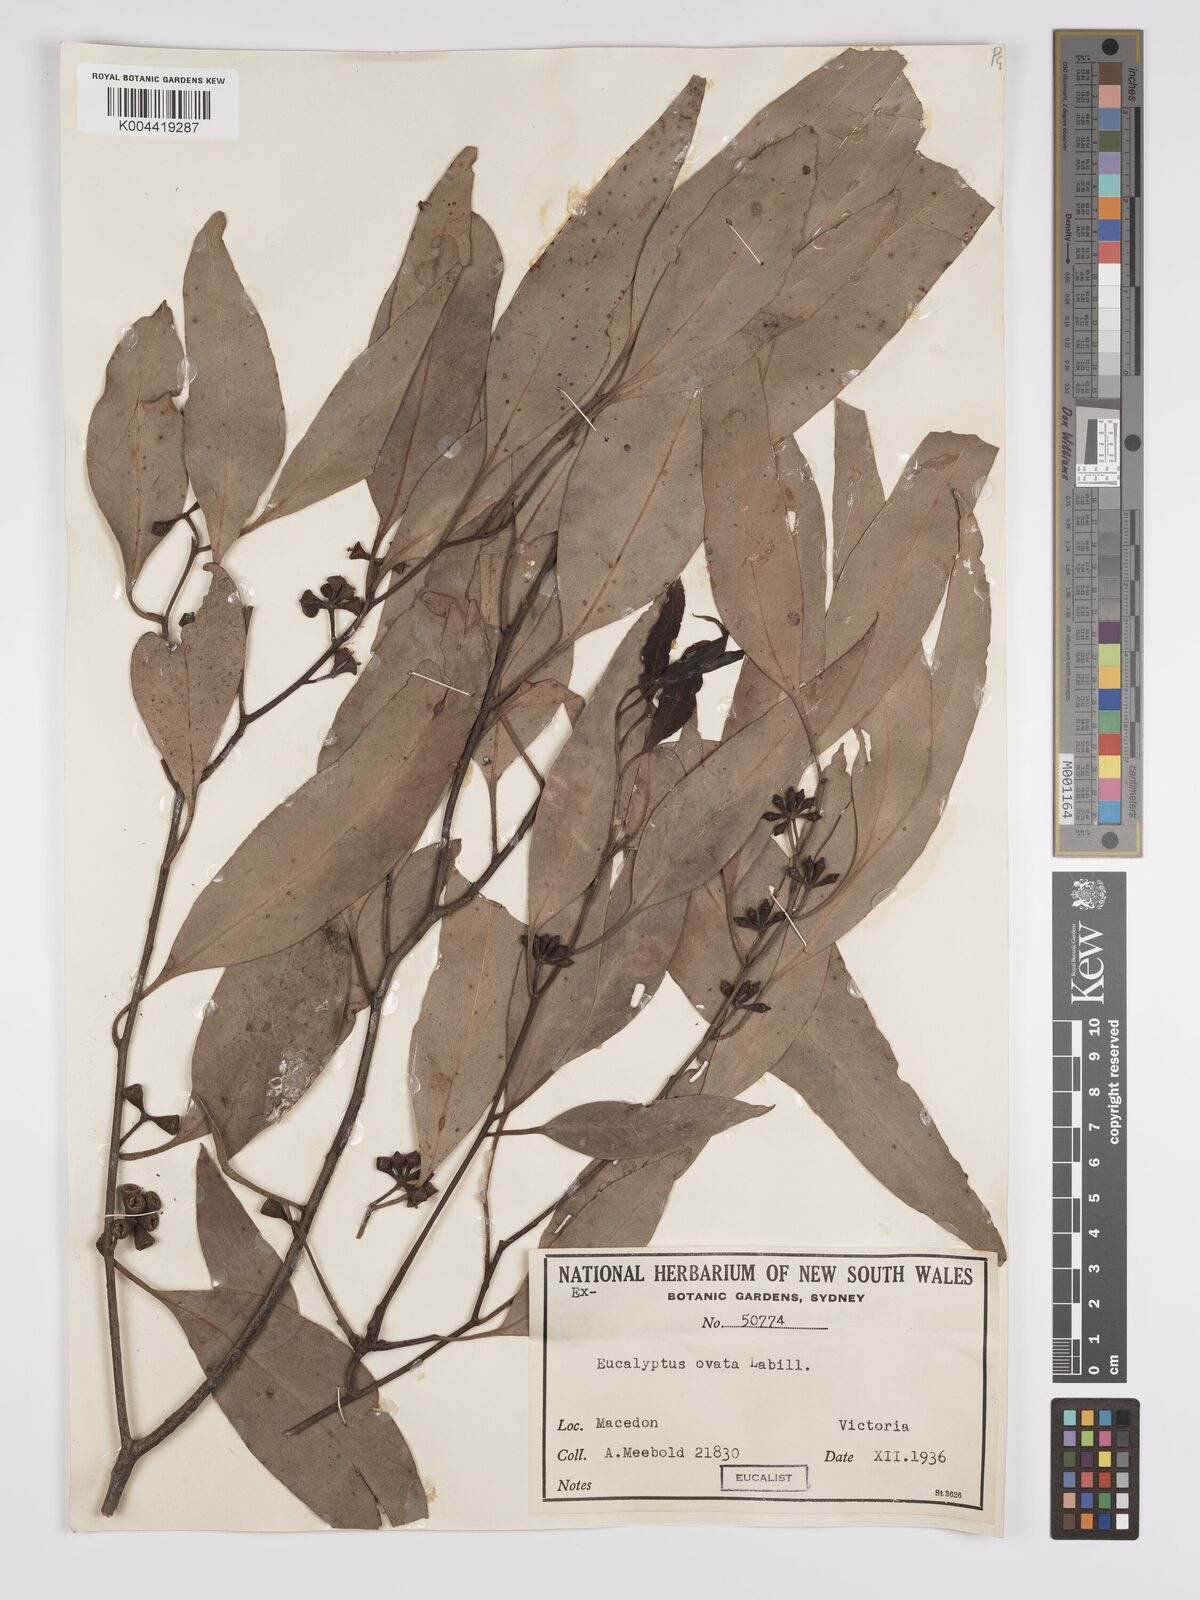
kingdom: Plantae
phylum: Tracheophyta
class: Magnoliopsida
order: Myrtales
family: Myrtaceae
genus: Eucalyptus
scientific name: Eucalyptus ovata
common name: Black-gum
